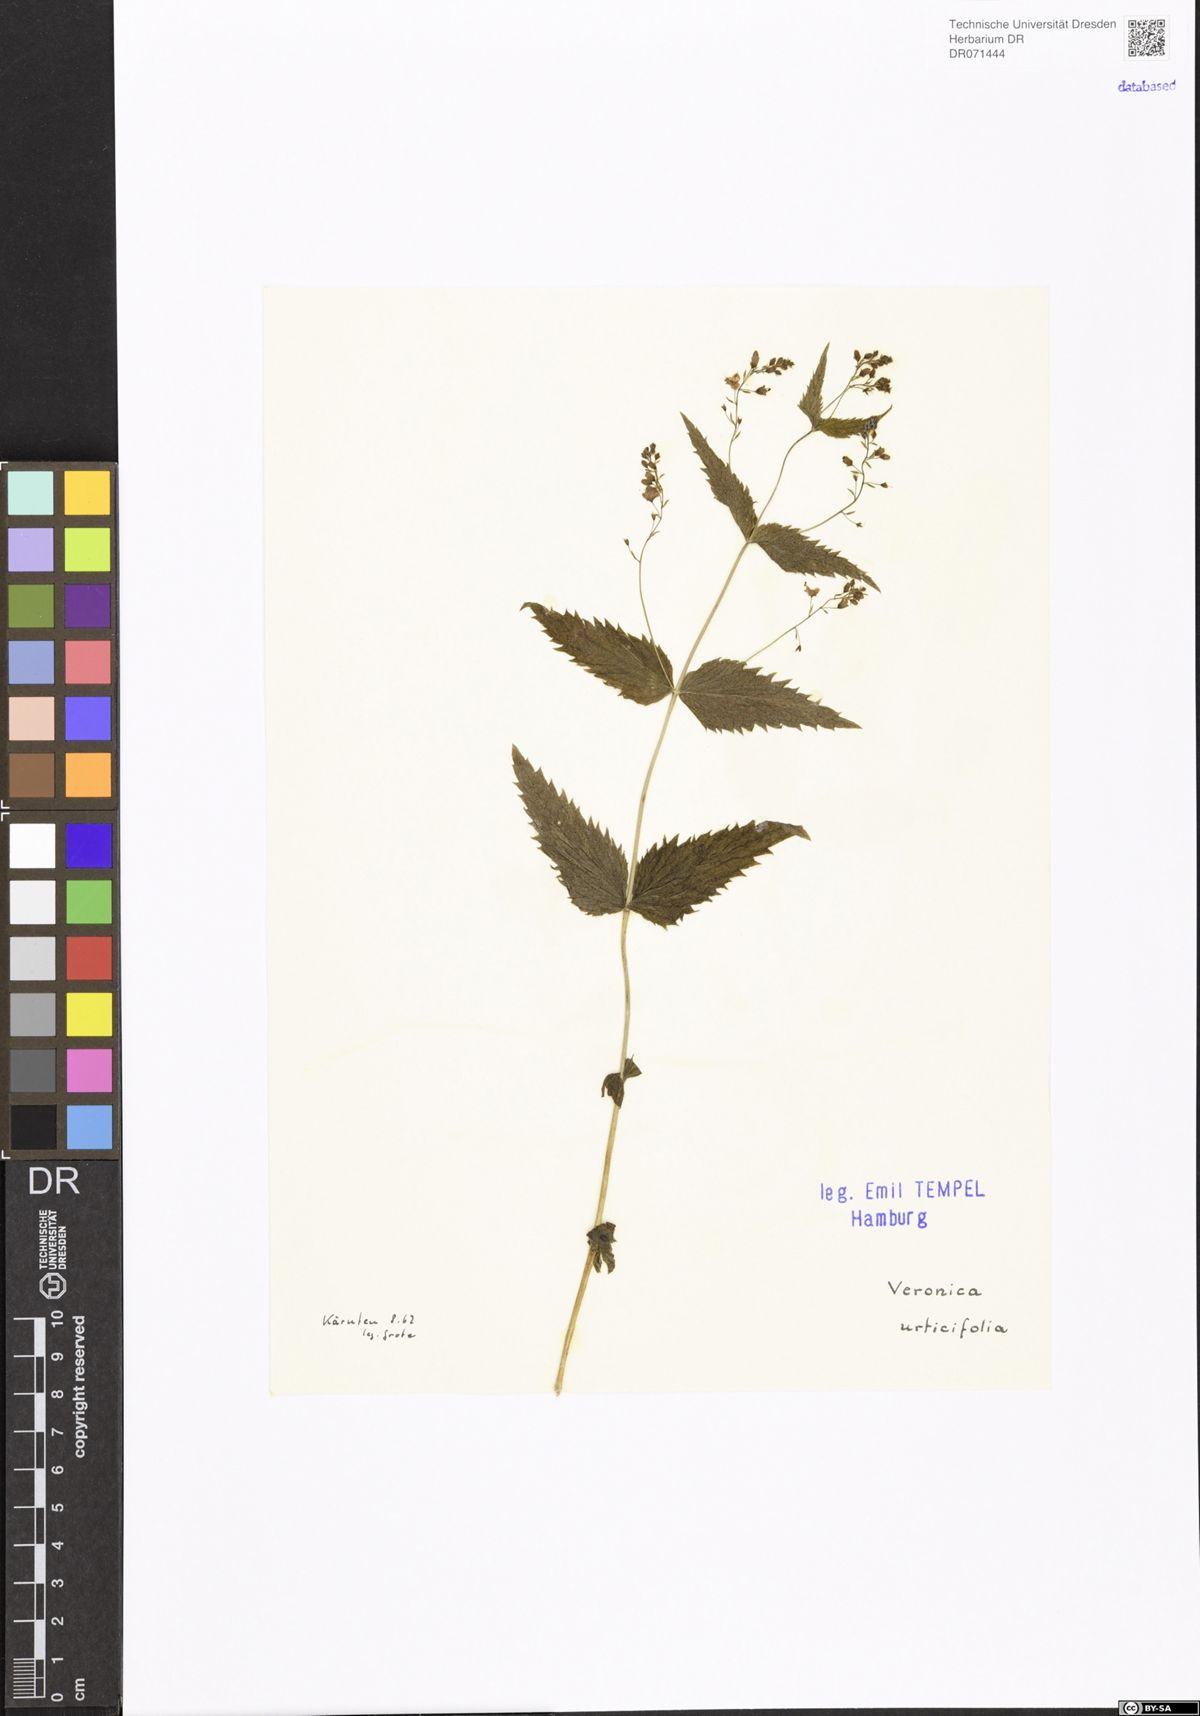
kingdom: Plantae
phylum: Tracheophyta
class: Magnoliopsida
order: Lamiales
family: Plantaginaceae
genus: Veronica
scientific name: Veronica urticifolia
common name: Nettle-leaf speedwell
